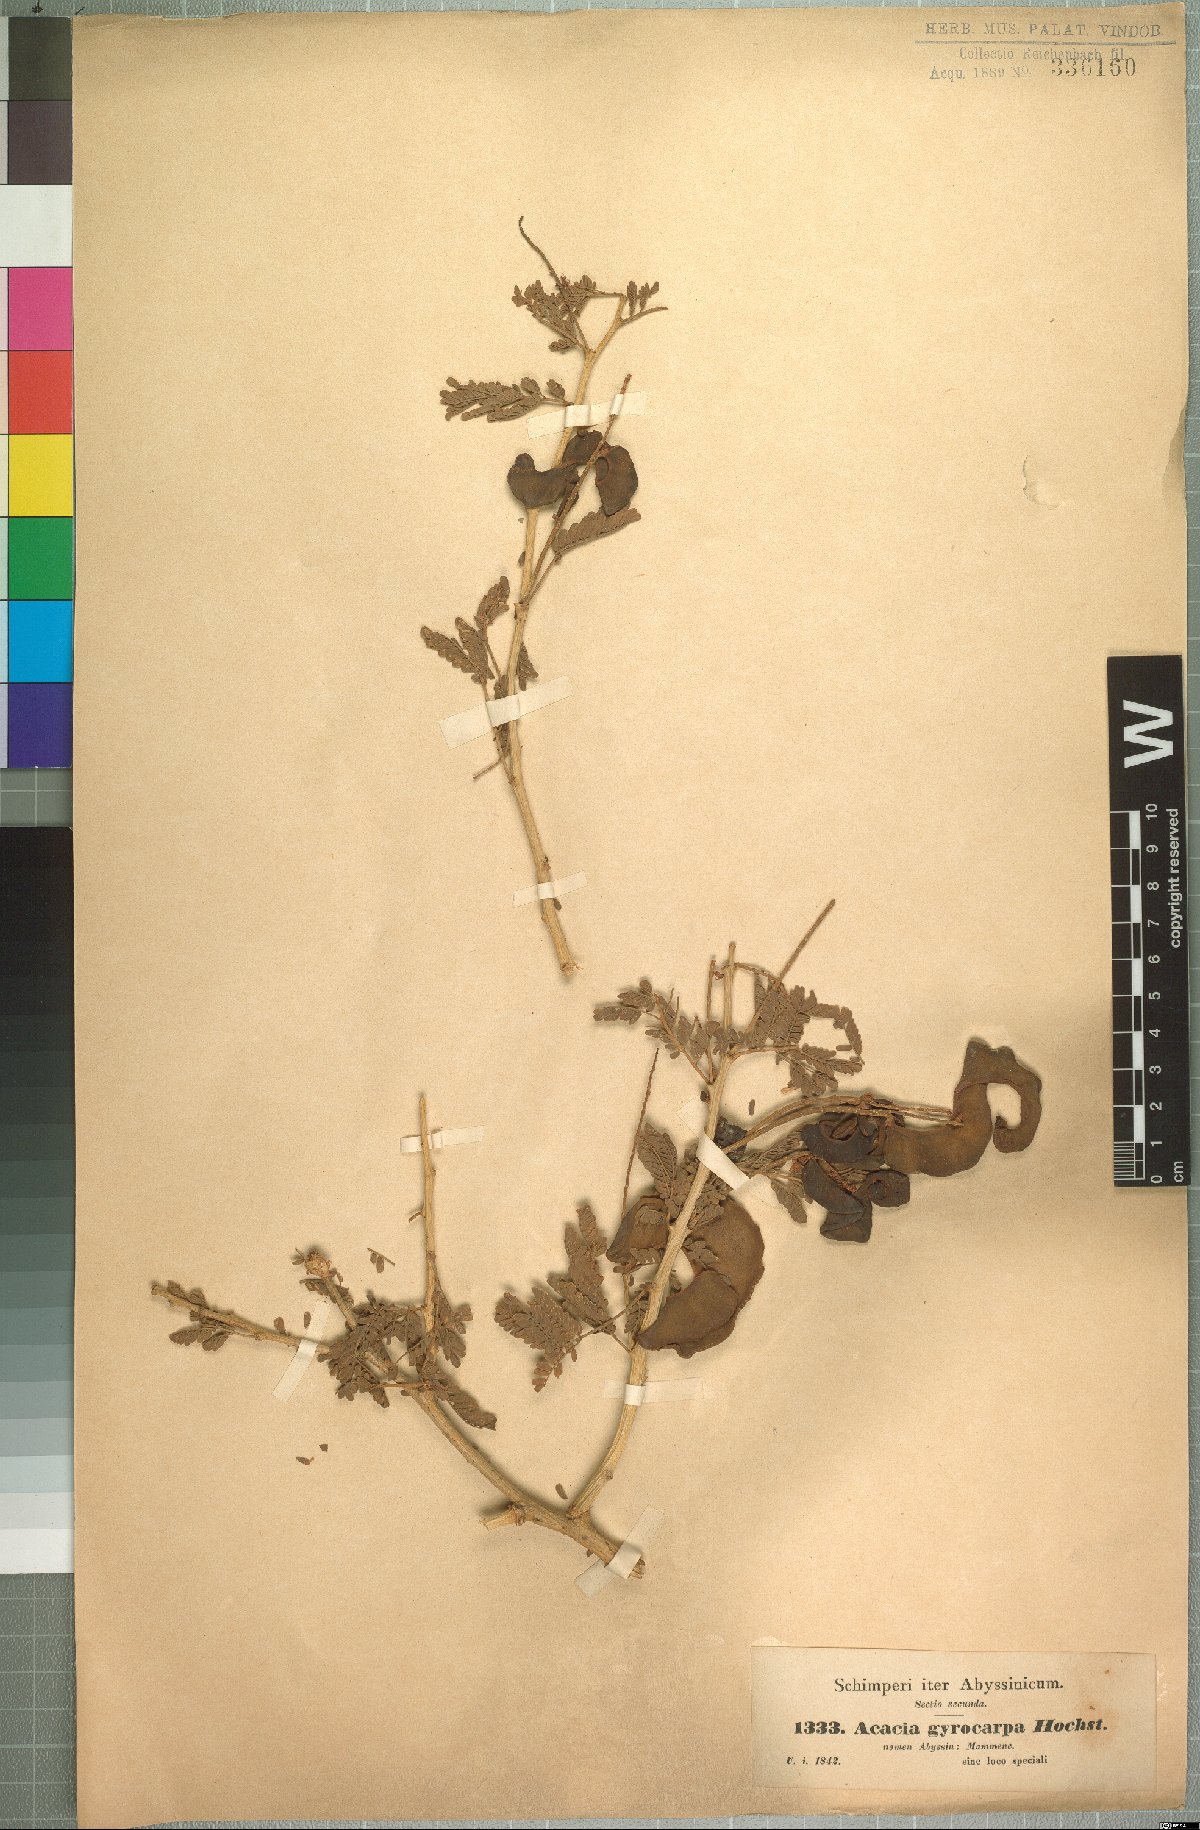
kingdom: Plantae
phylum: Tracheophyta
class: Magnoliopsida
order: Fabales
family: Fabaceae
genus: Faidherbia
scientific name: Faidherbia albida
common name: Anatree
